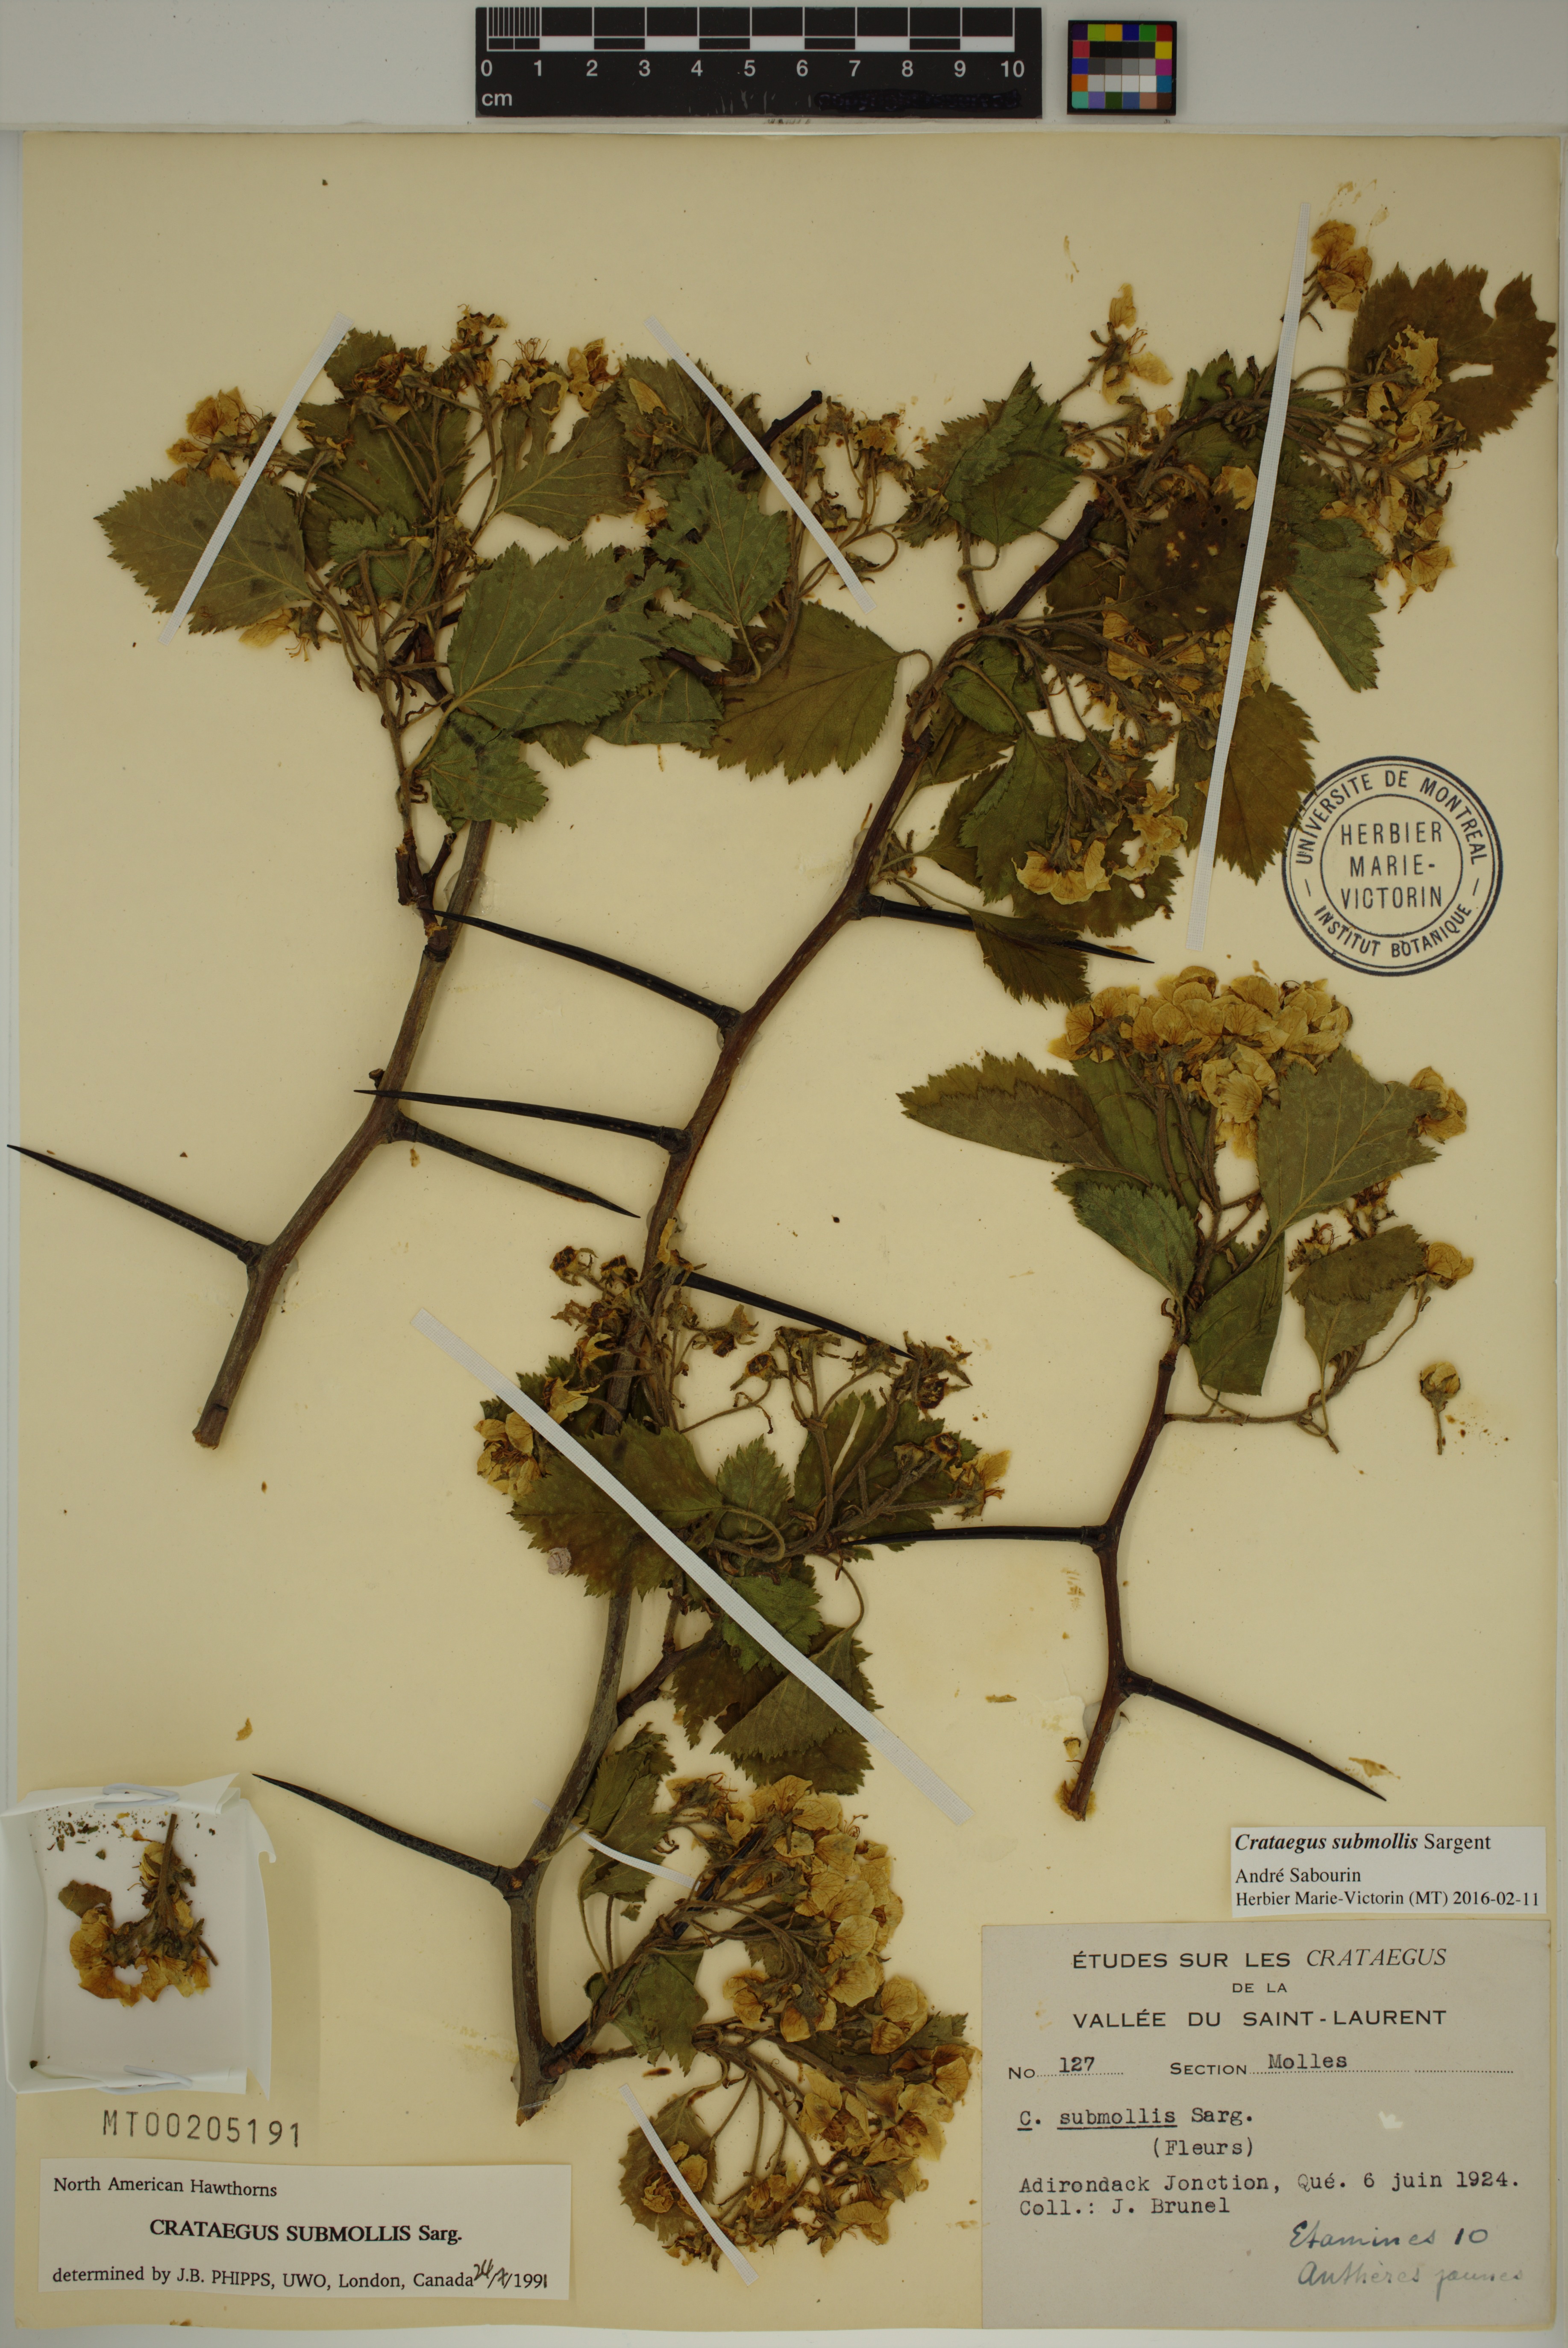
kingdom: Plantae
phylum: Tracheophyta
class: Magnoliopsida
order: Rosales
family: Rosaceae
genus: Crataegus
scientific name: Crataegus submollis
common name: Hairy cockspurthorn
